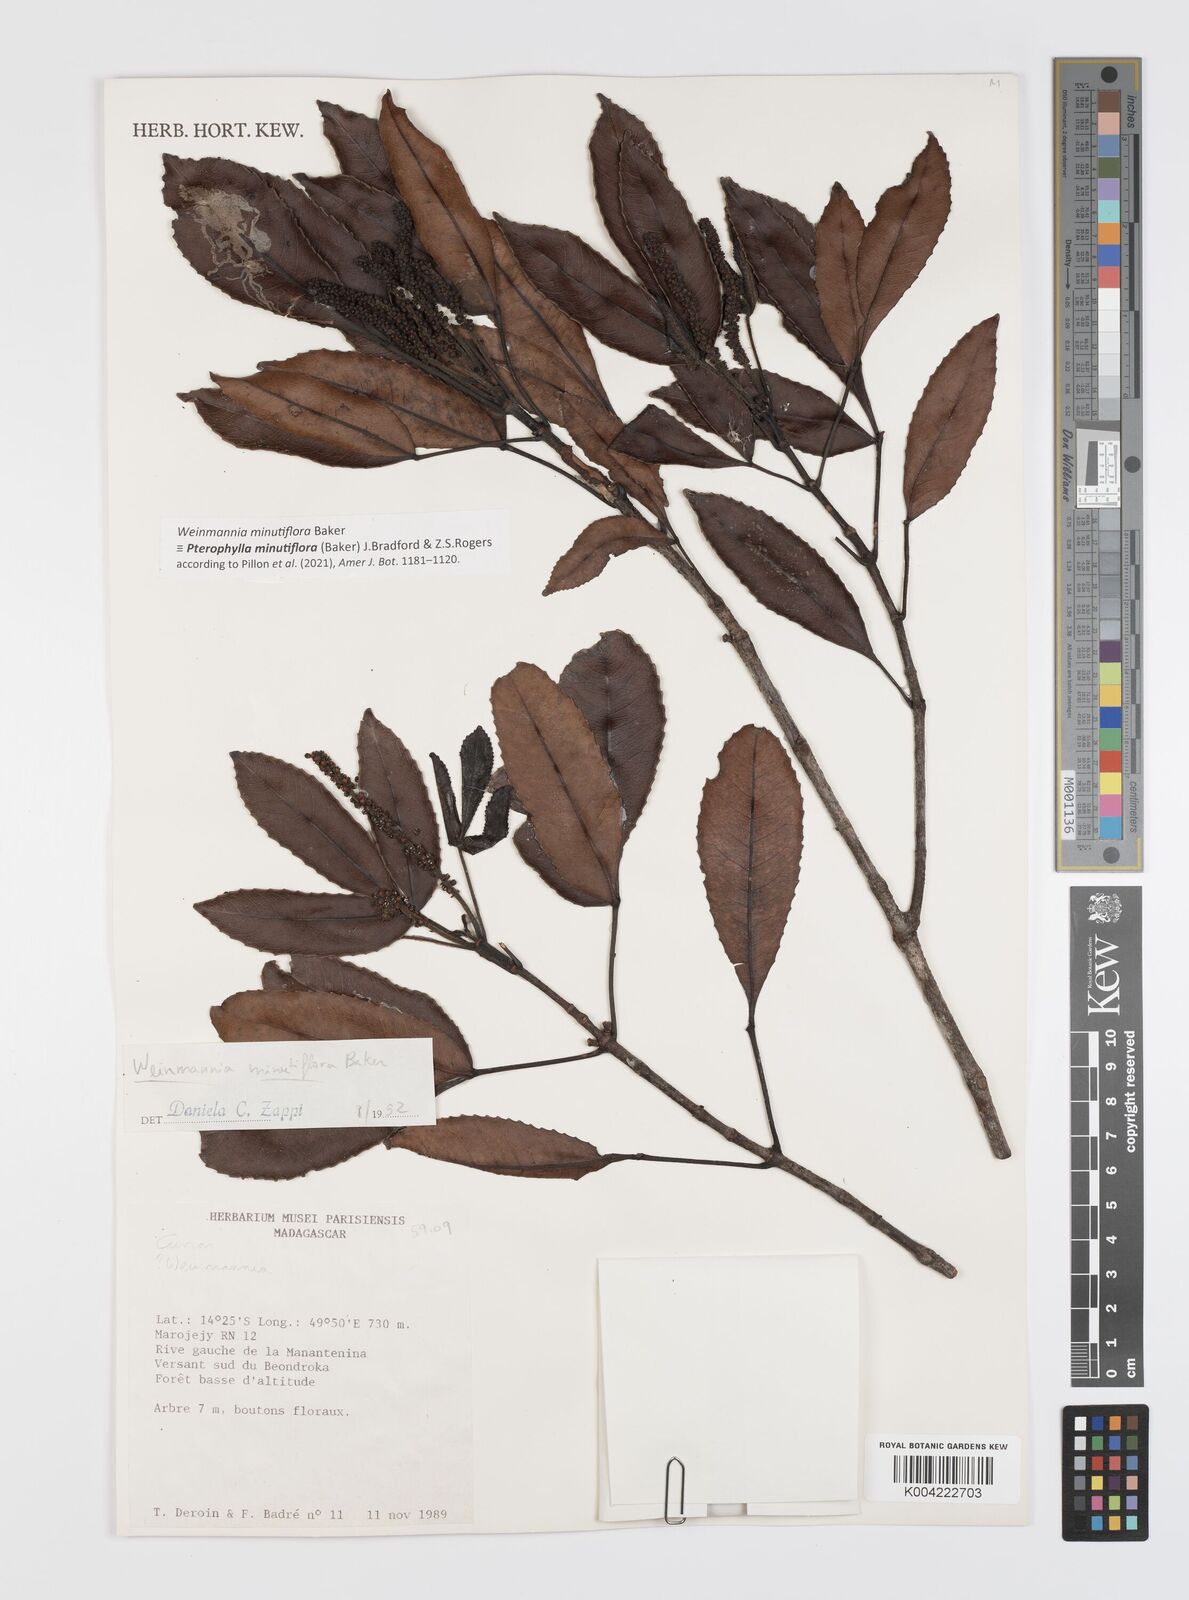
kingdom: Plantae
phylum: Tracheophyta
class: Magnoliopsida
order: Oxalidales
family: Cunoniaceae
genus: Pterophylla
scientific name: Pterophylla
